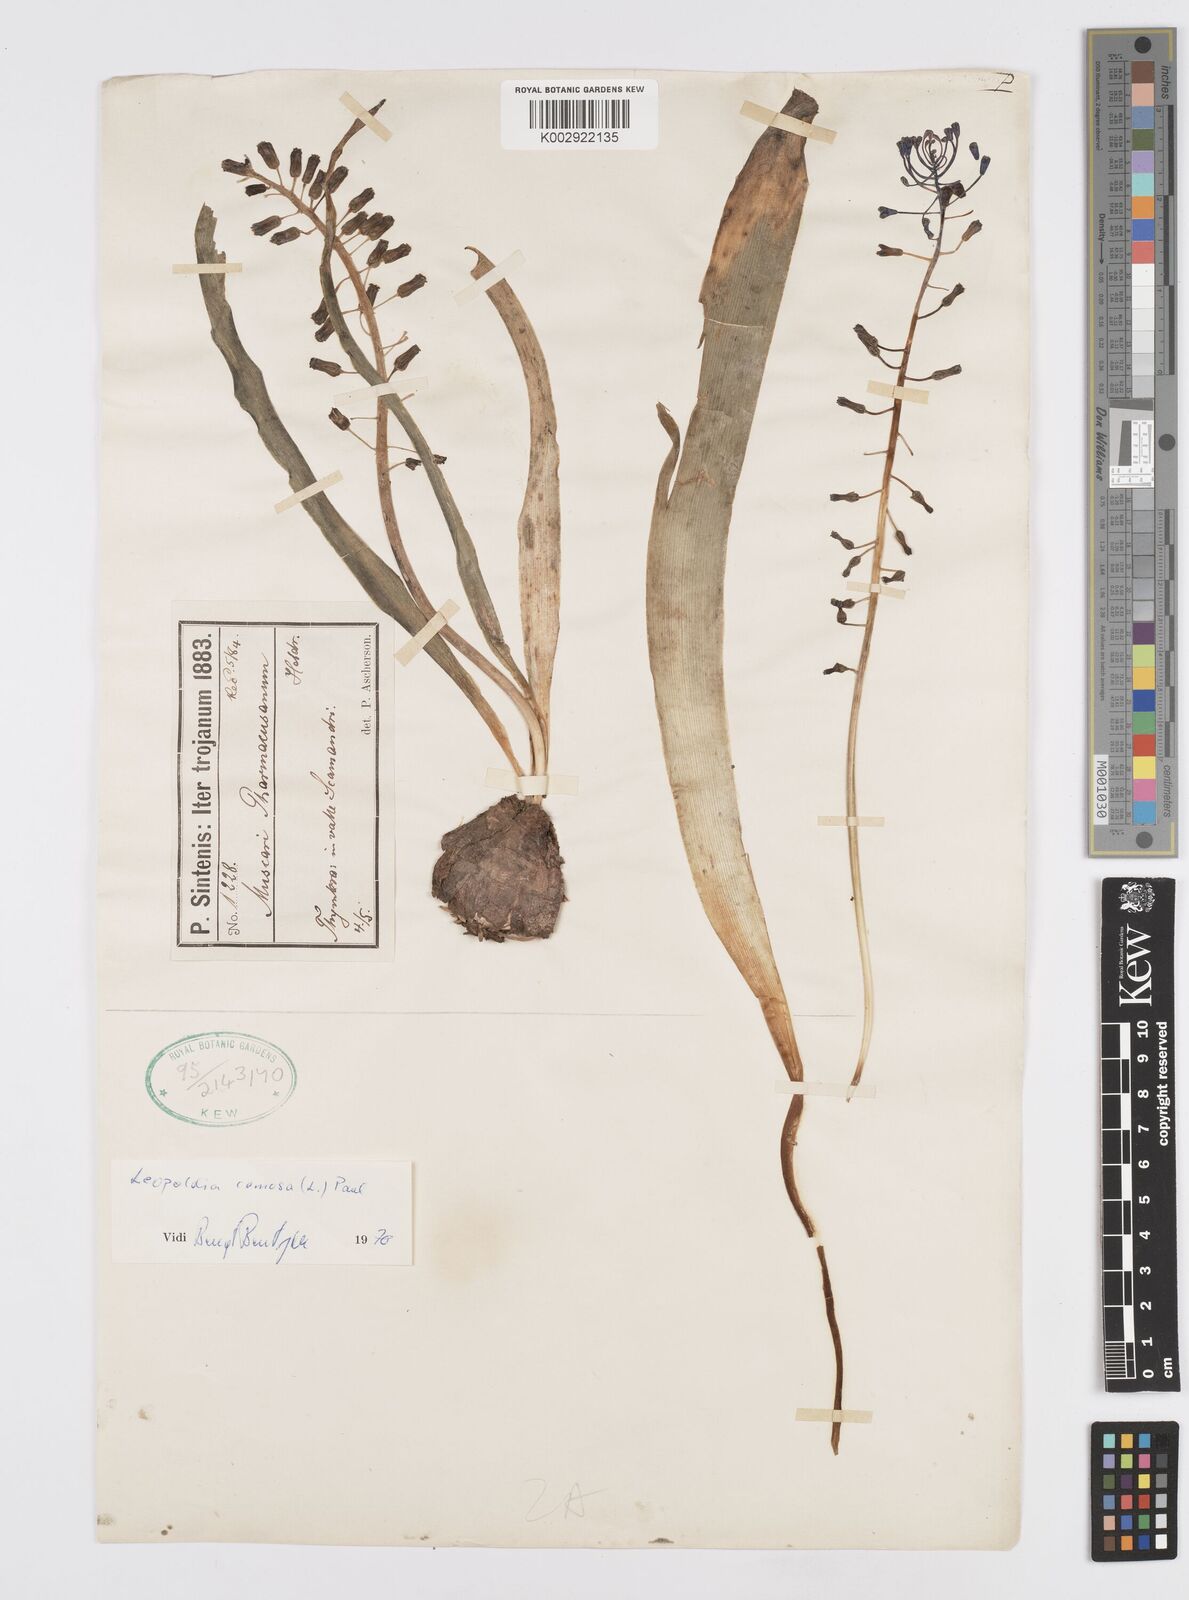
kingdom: Plantae
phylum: Tracheophyta
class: Liliopsida
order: Asparagales
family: Asparagaceae
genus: Muscari
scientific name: Muscari comosum
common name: Tassel hyacinth
